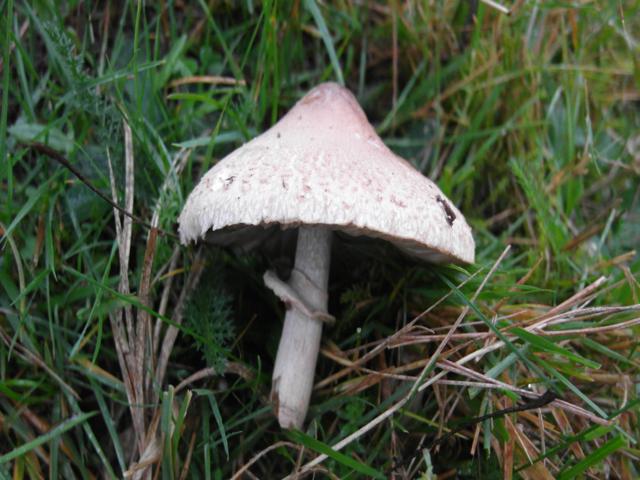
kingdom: Fungi
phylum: Basidiomycota
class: Agaricomycetes
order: Agaricales
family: Agaricaceae
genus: Macrolepiota
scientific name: Macrolepiota mastoidea
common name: puklet kæmpeparasolhat
